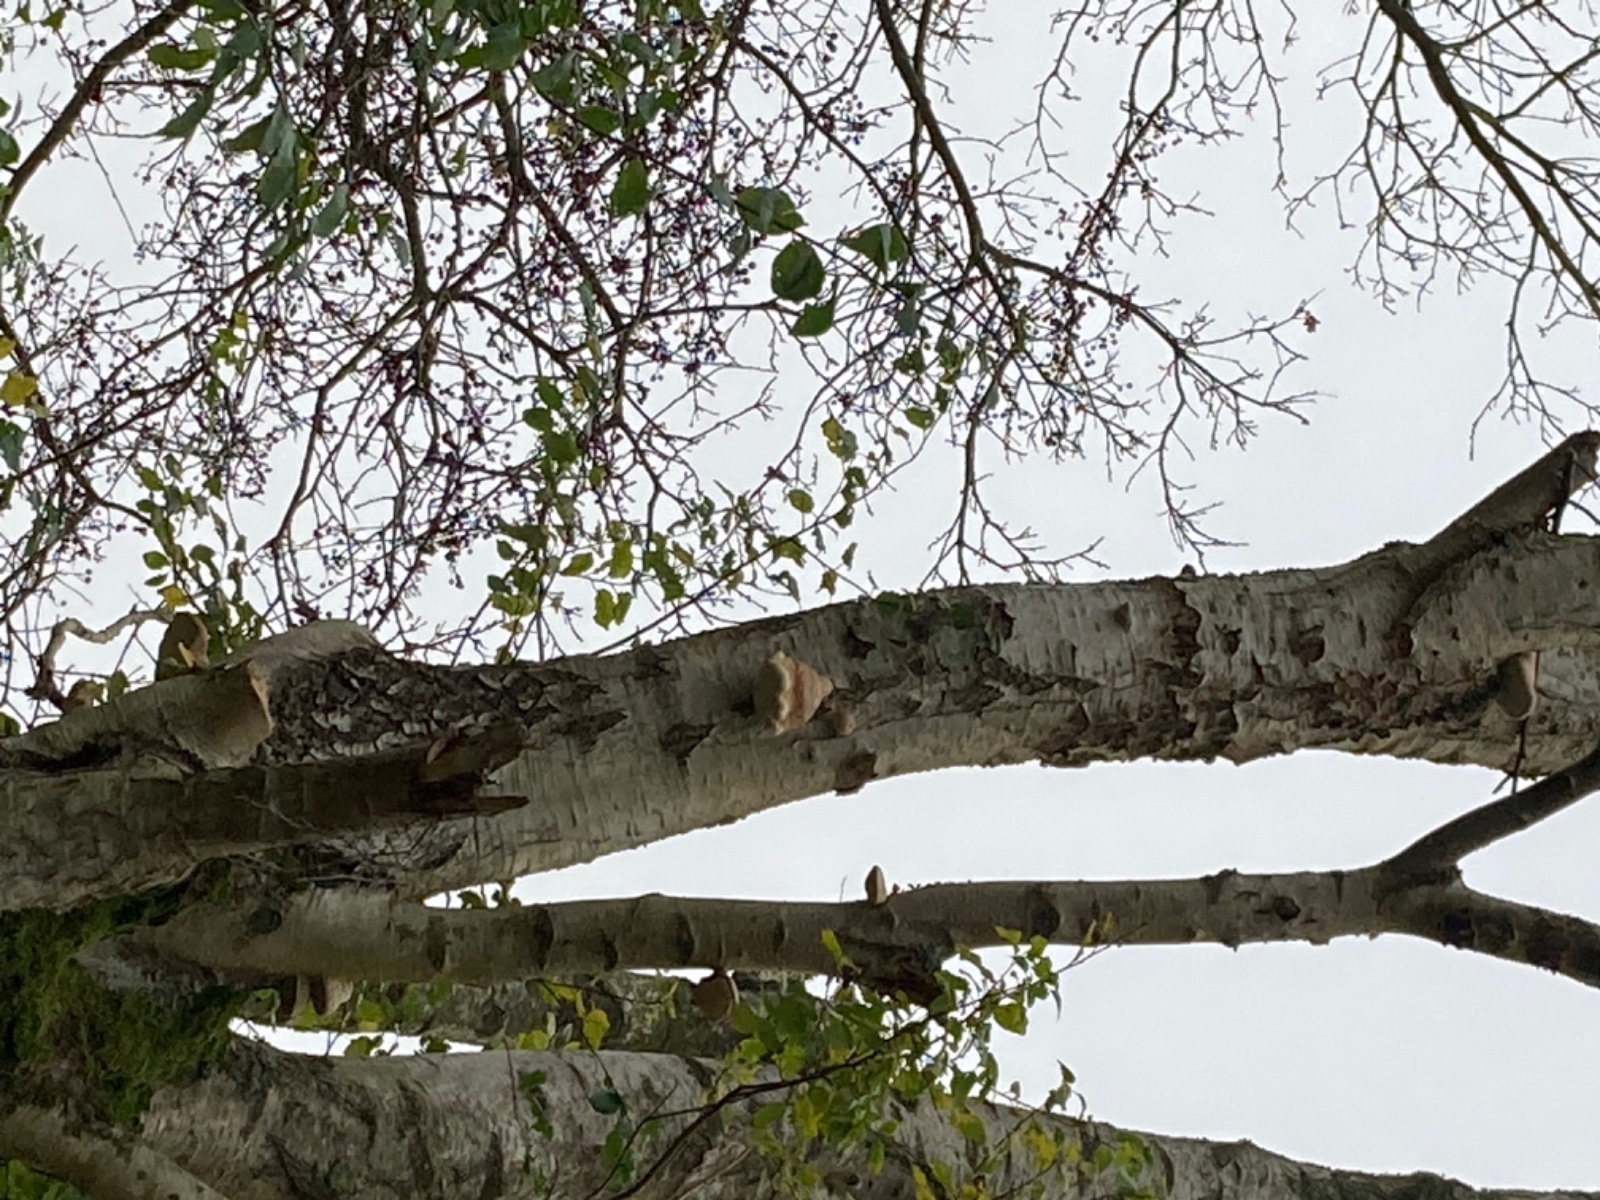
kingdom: Fungi
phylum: Basidiomycota
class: Agaricomycetes
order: Polyporales
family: Fomitopsidaceae
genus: Fomitopsis
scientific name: Fomitopsis betulina
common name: birkeporesvamp
